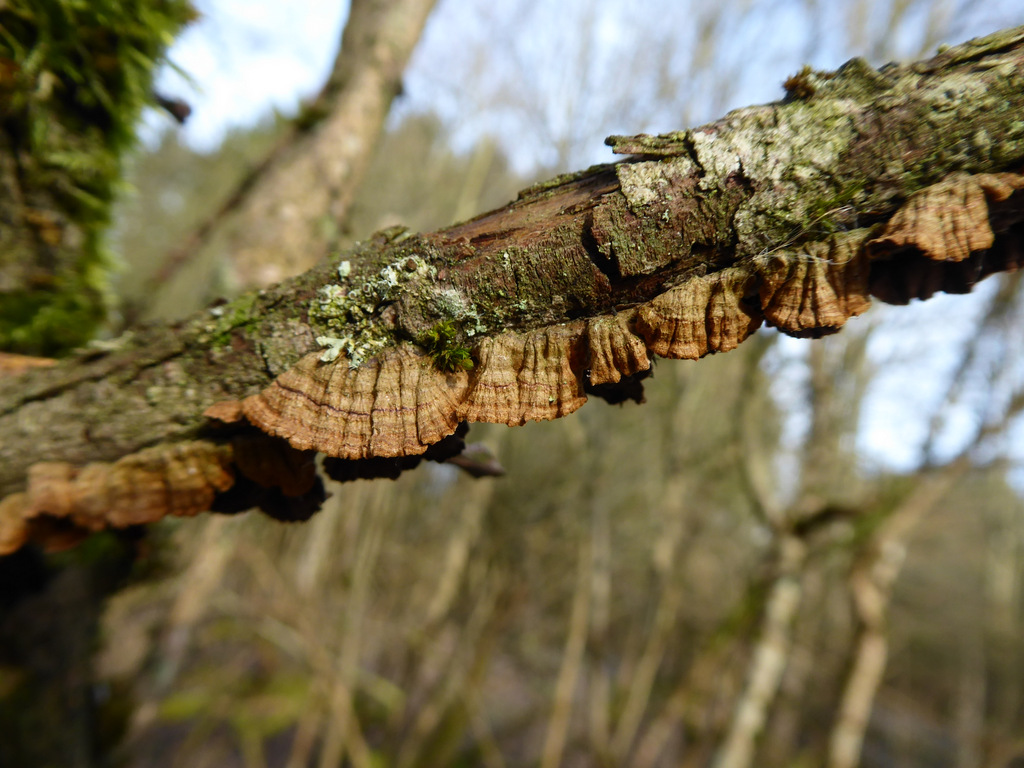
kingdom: Fungi
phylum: Basidiomycota
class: Agaricomycetes
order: Hymenochaetales
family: Hymenochaetaceae
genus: Hydnoporia
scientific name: Hydnoporia tabacina
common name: tobaksbrun ruslædersvamp
